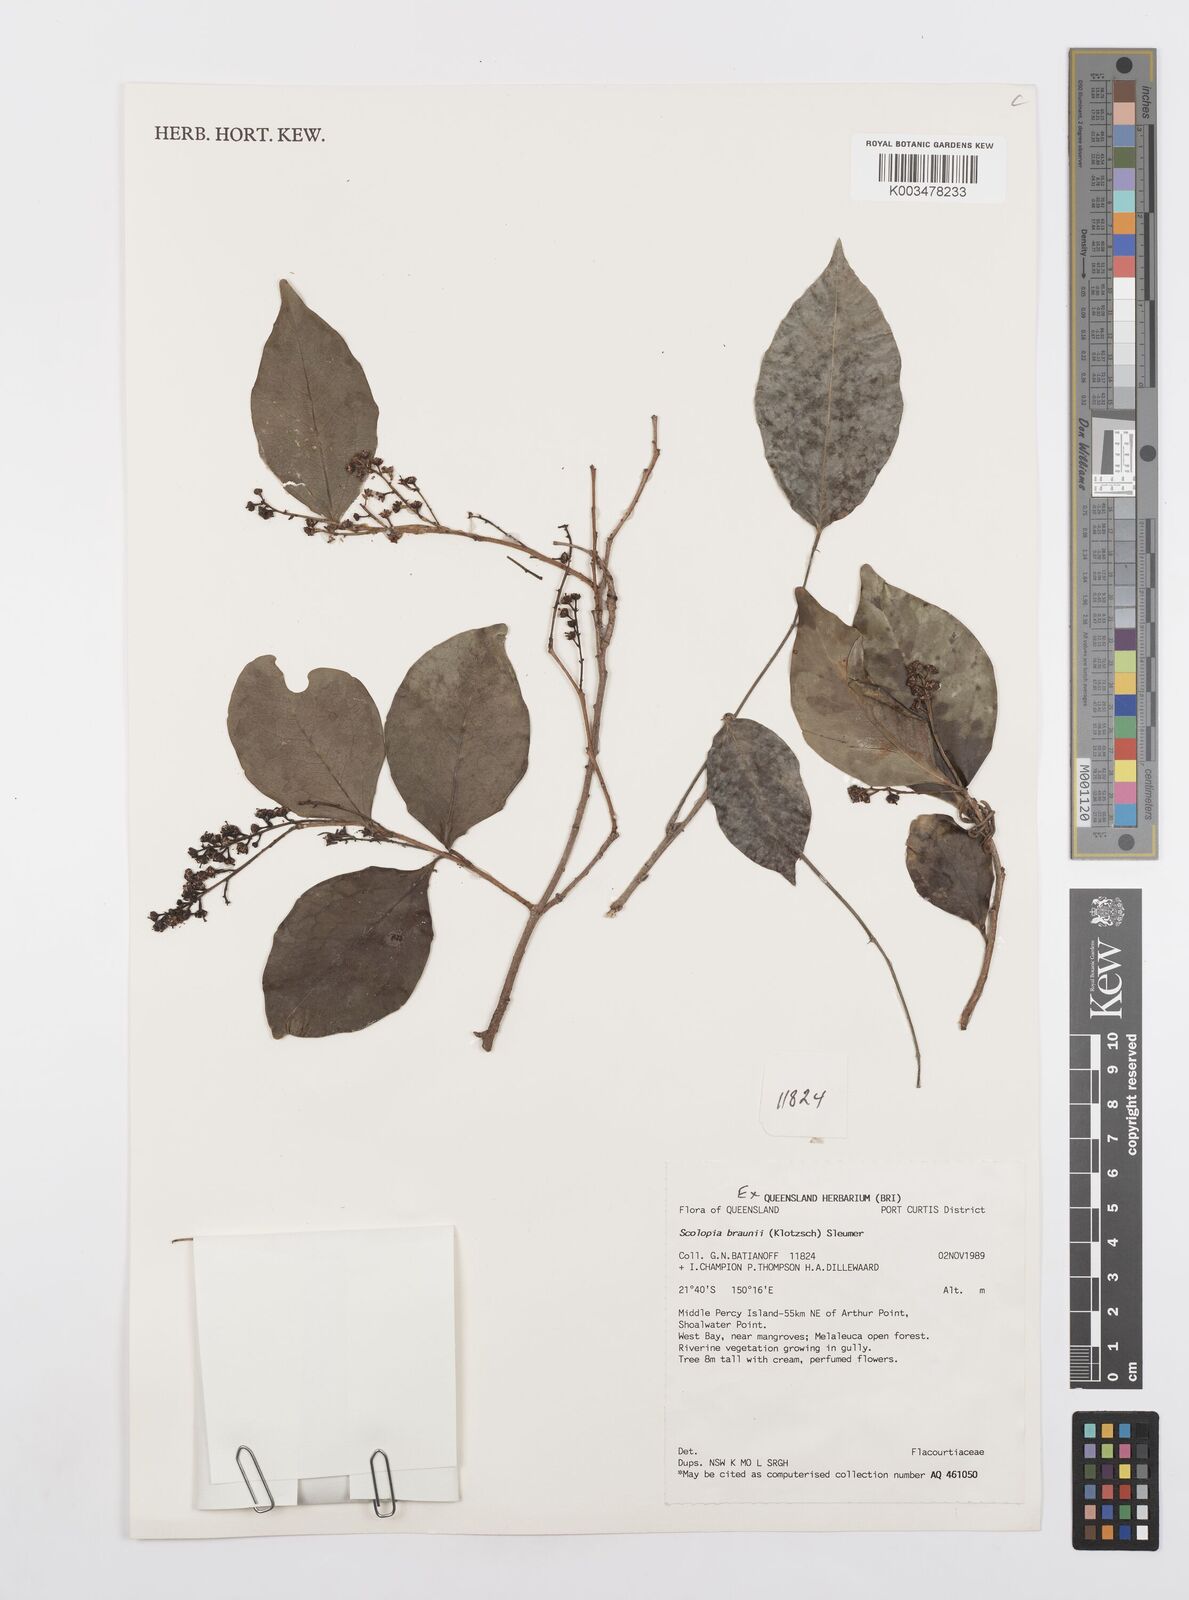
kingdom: Plantae
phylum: Tracheophyta
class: Magnoliopsida
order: Malpighiales
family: Salicaceae
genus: Scolopia
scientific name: Scolopia braunii
